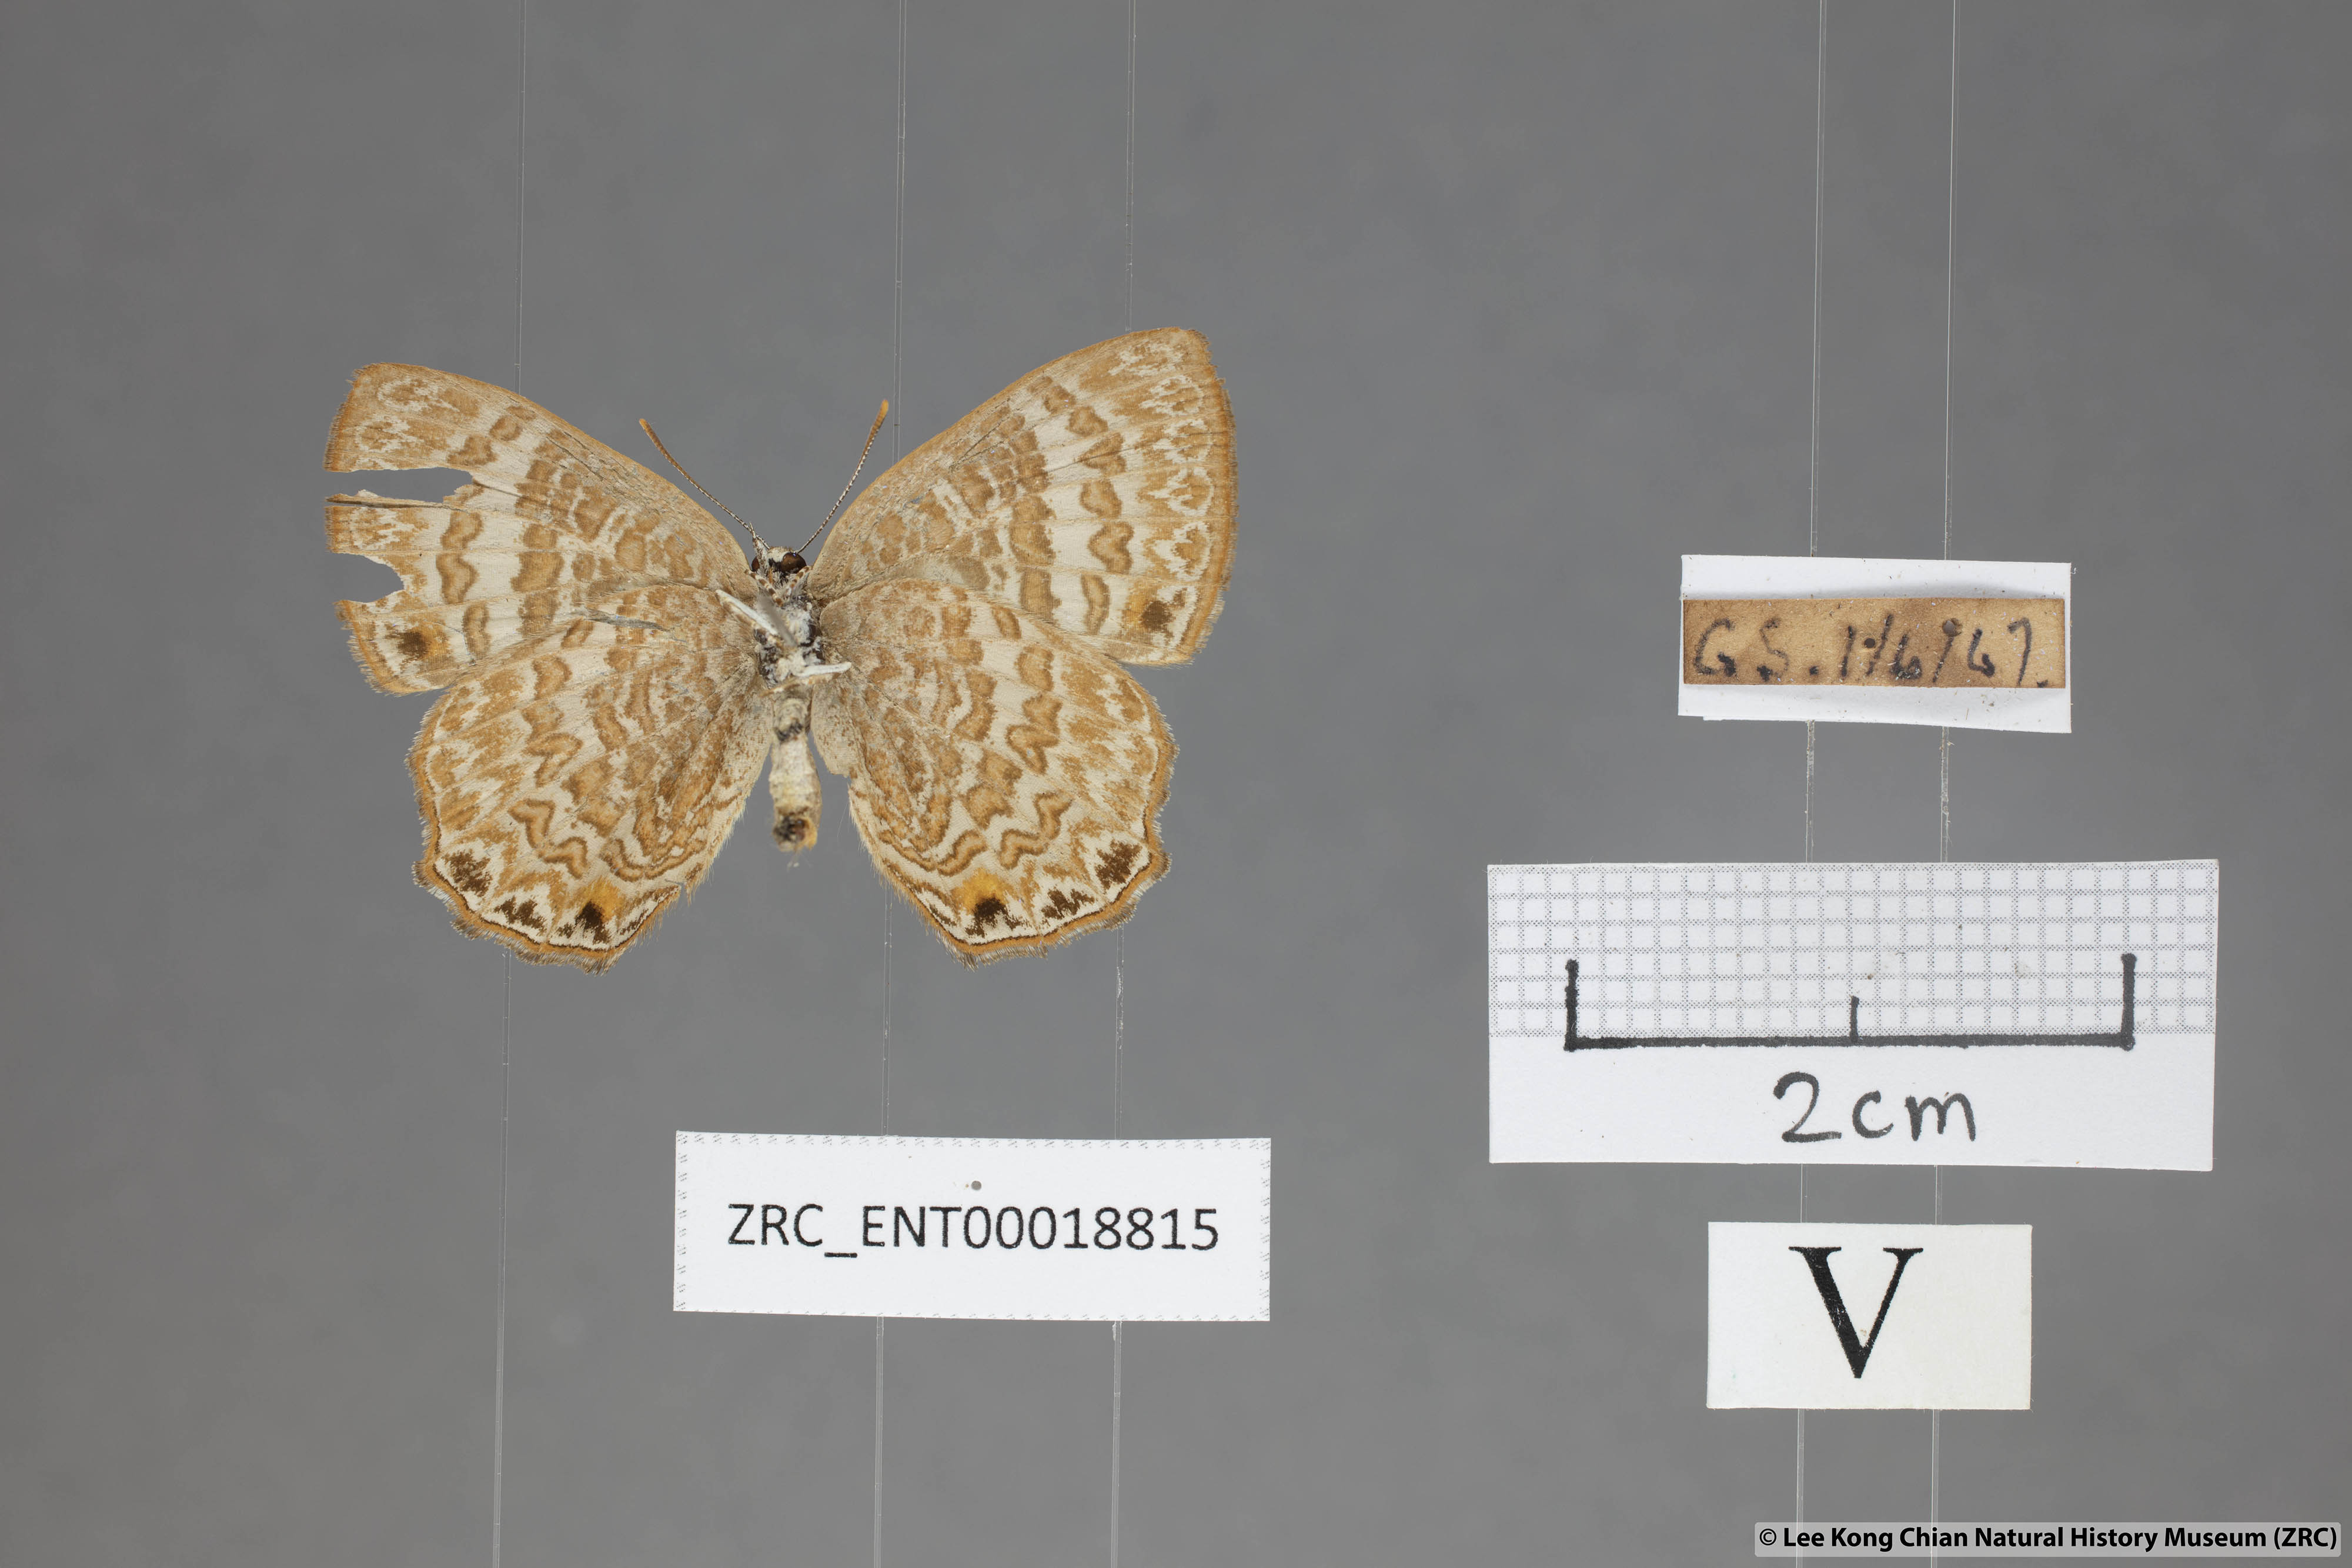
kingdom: Animalia
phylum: Arthropoda
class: Insecta
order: Lepidoptera
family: Lycaenidae
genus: Poritia
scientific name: Poritia pleurata
